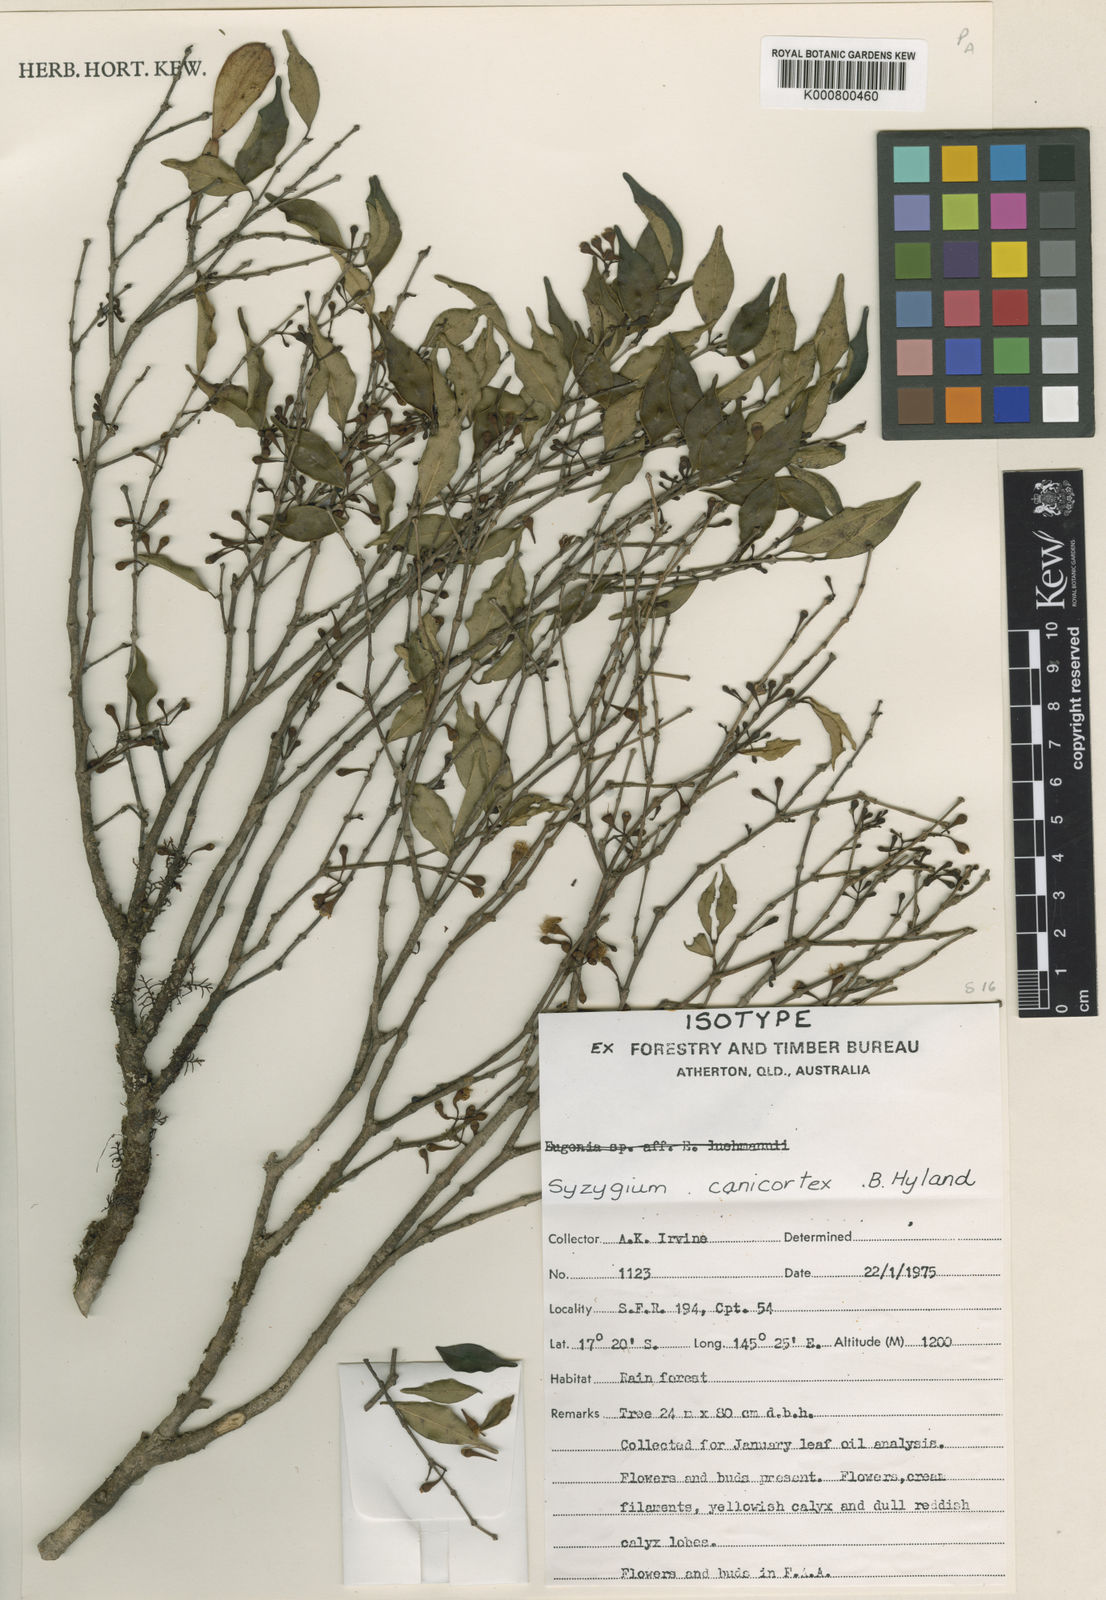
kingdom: Plantae
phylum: Tracheophyta
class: Magnoliopsida
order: Myrtales
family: Myrtaceae
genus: Syzygium
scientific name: Syzygium canicortex
